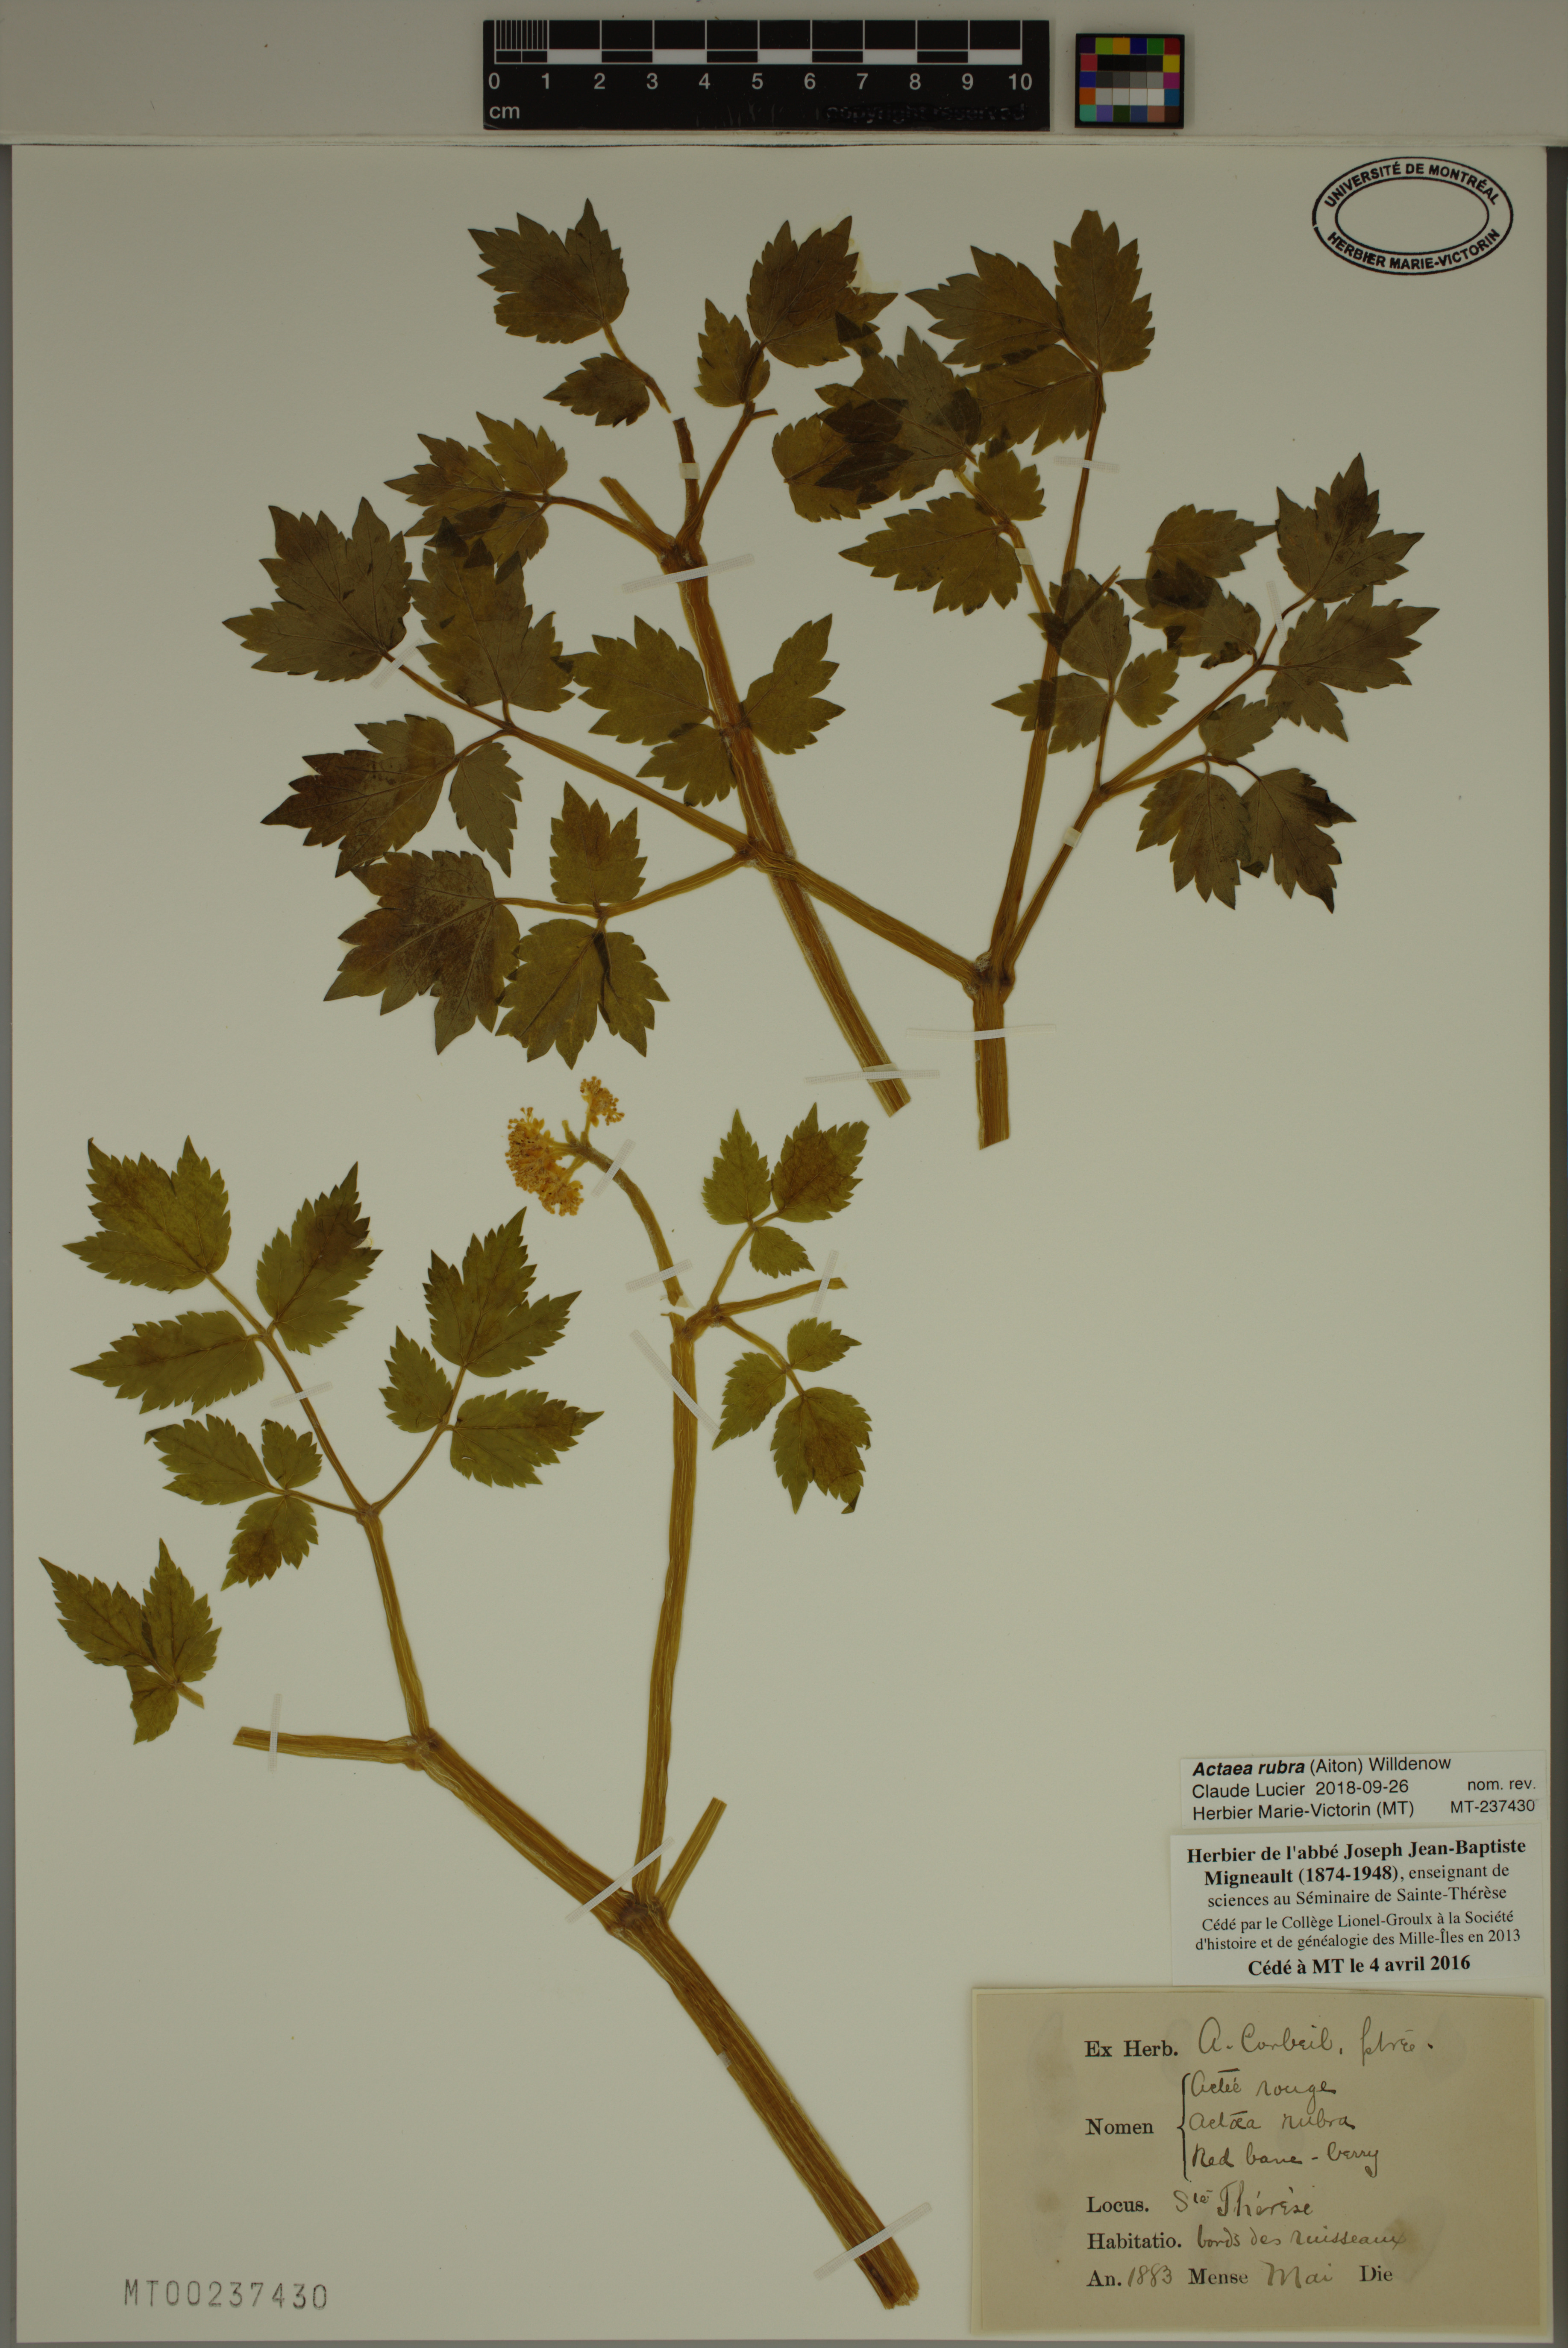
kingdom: Plantae
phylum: Tracheophyta
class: Magnoliopsida
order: Ranunculales
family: Ranunculaceae
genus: Actaea
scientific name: Actaea rubra
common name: Red baneberry
